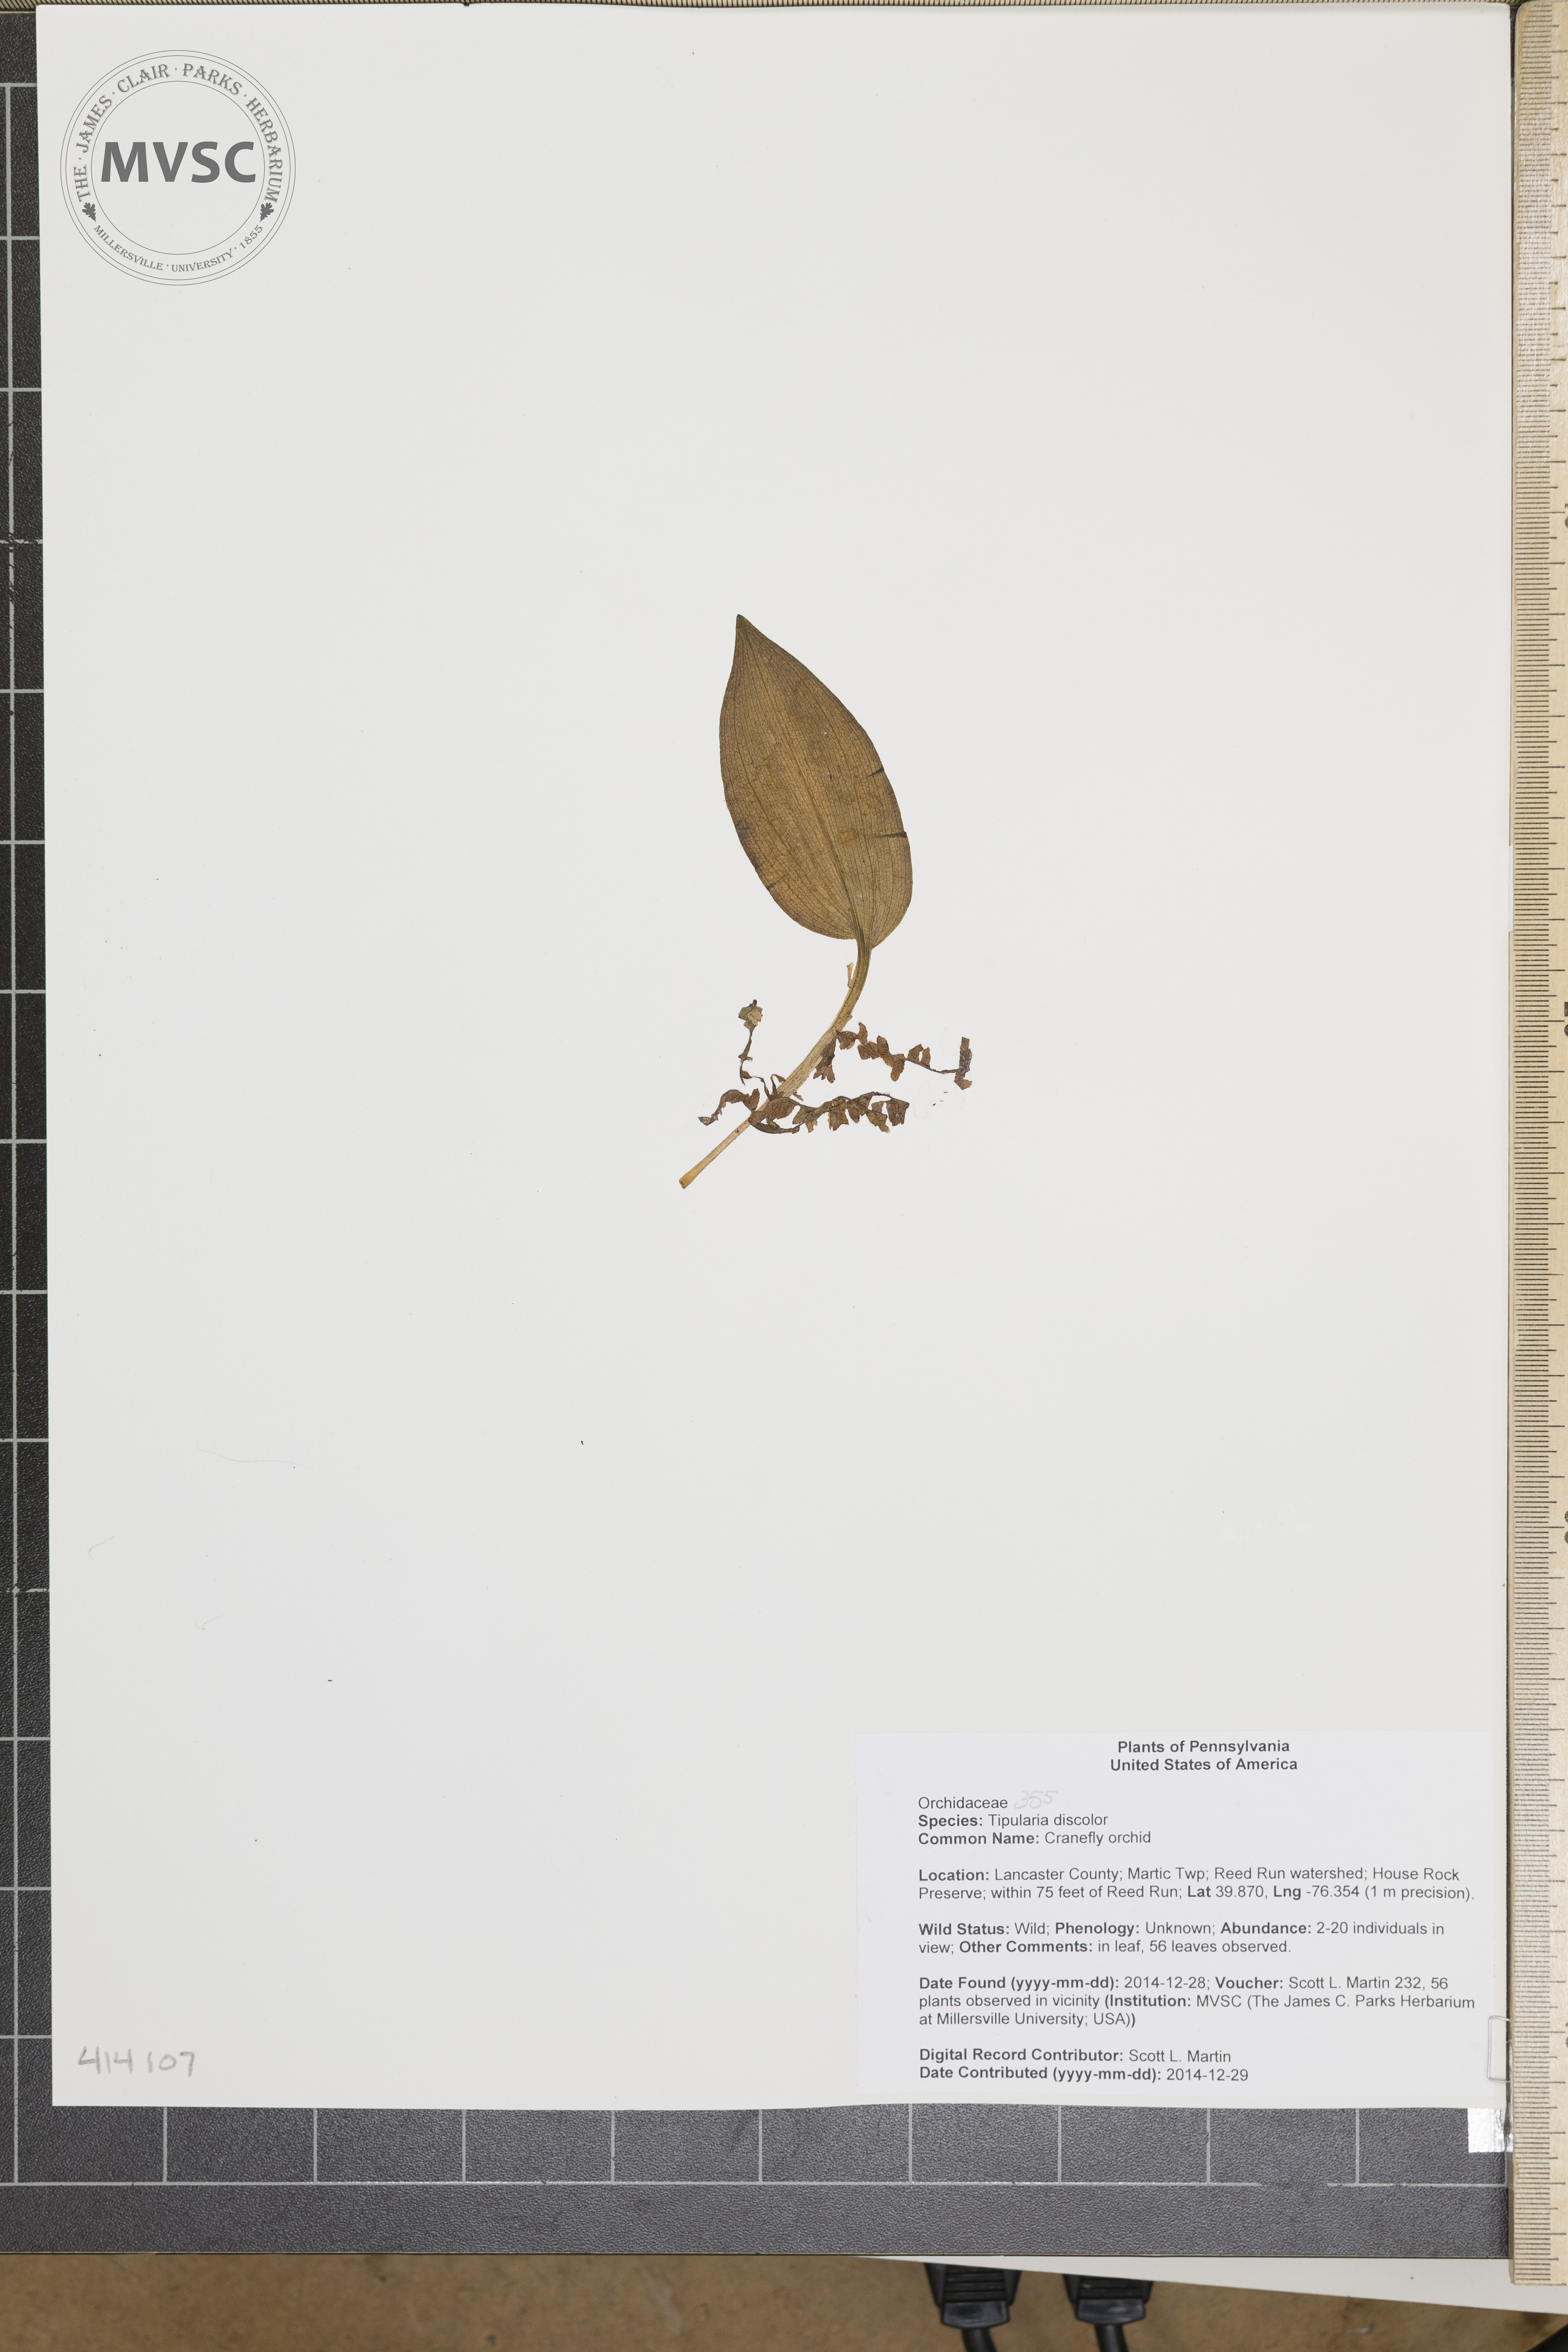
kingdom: Plantae
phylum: Tracheophyta
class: Liliopsida
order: Asparagales
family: Orchidaceae
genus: Tipularia
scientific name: Tipularia discolor
